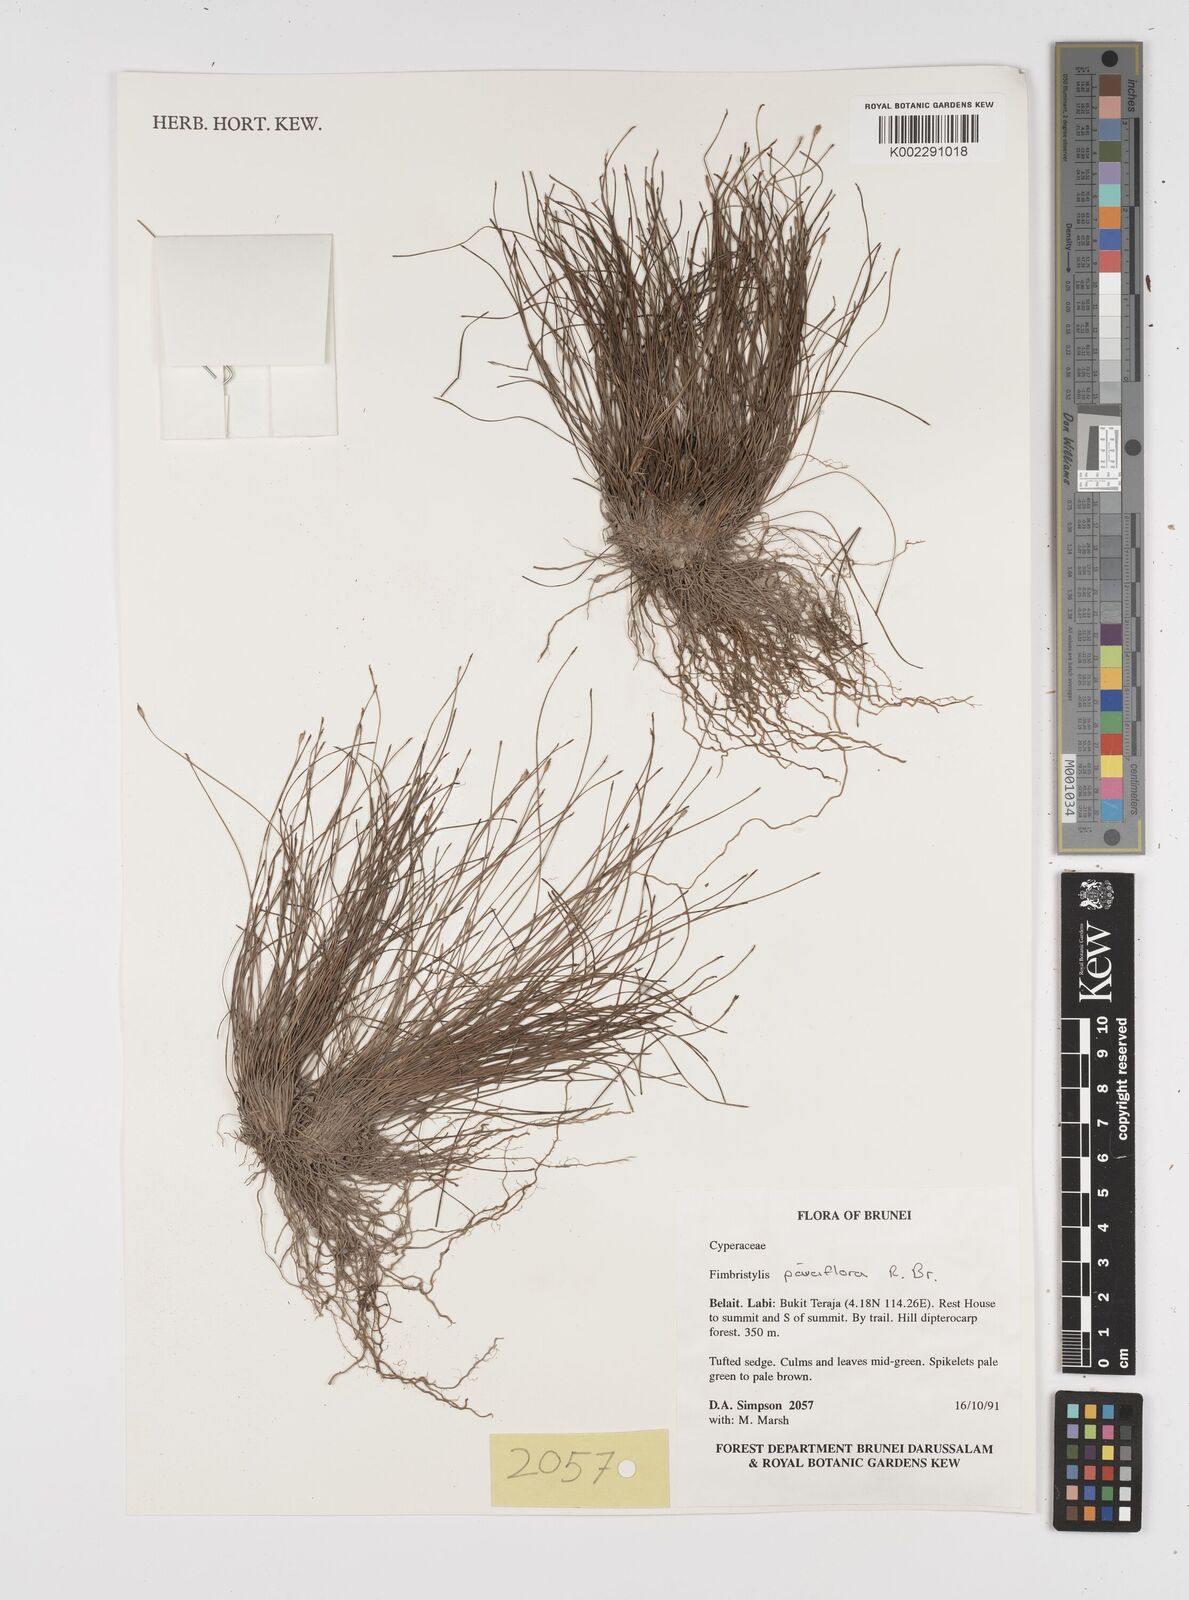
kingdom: Plantae
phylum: Tracheophyta
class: Liliopsida
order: Poales
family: Cyperaceae
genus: Fimbristylis
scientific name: Fimbristylis pauciflora
